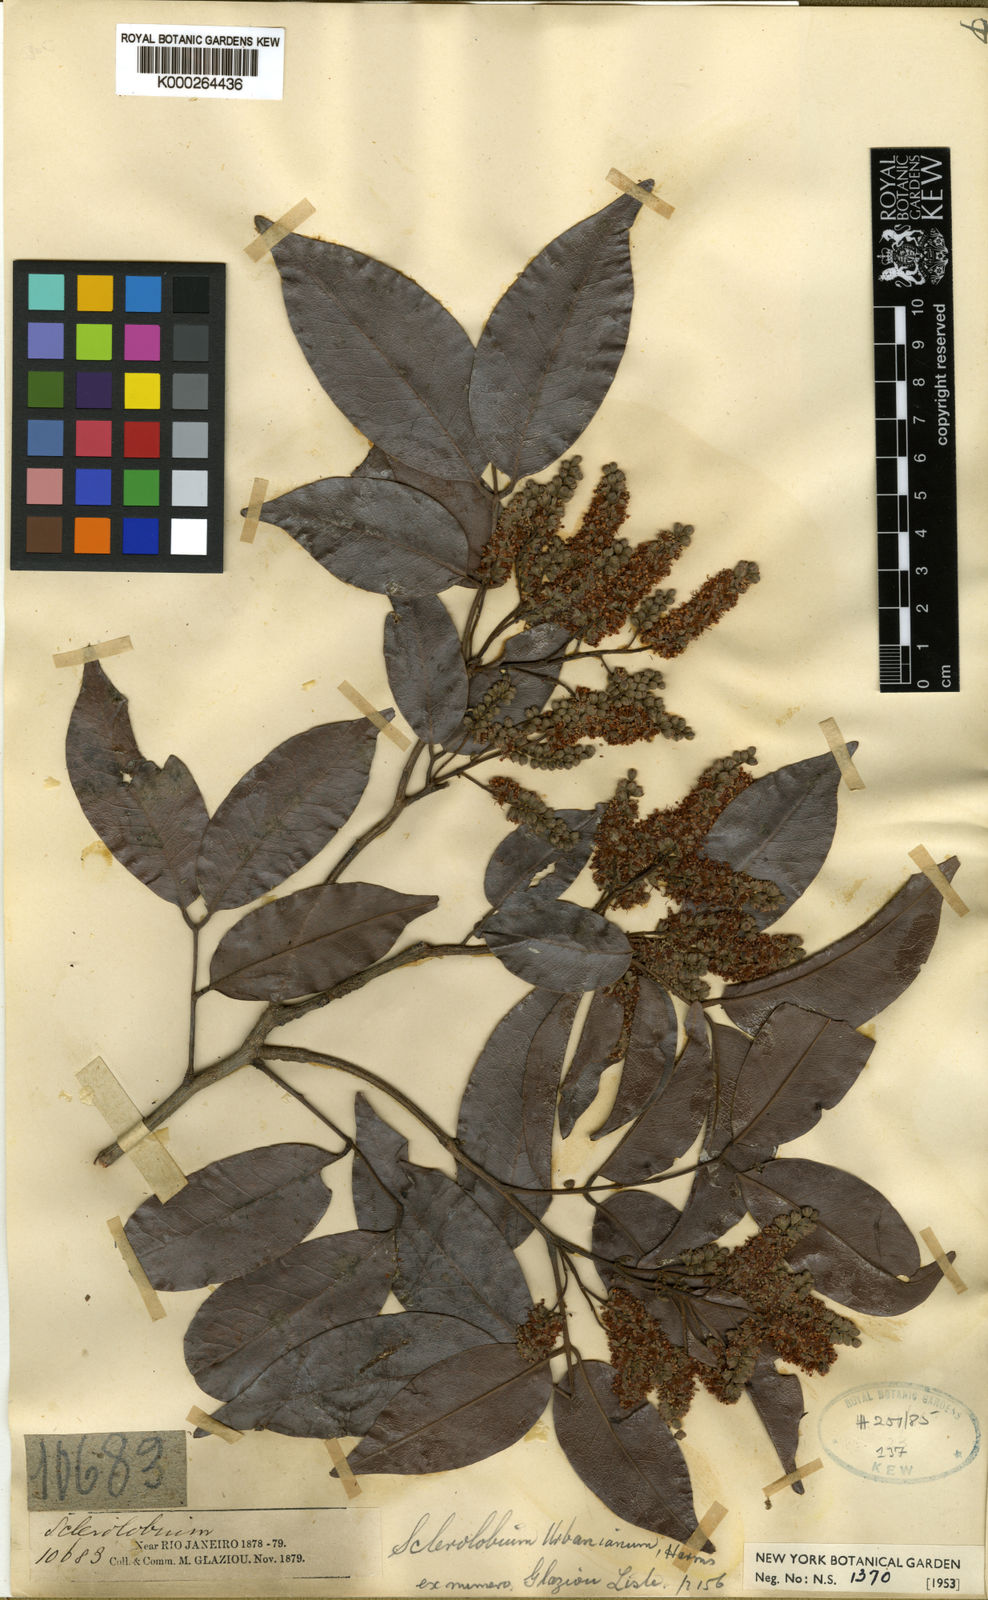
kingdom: Plantae
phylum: Tracheophyta
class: Magnoliopsida
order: Fabales
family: Fabaceae
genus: Tachigali
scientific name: Tachigali urbaniana
